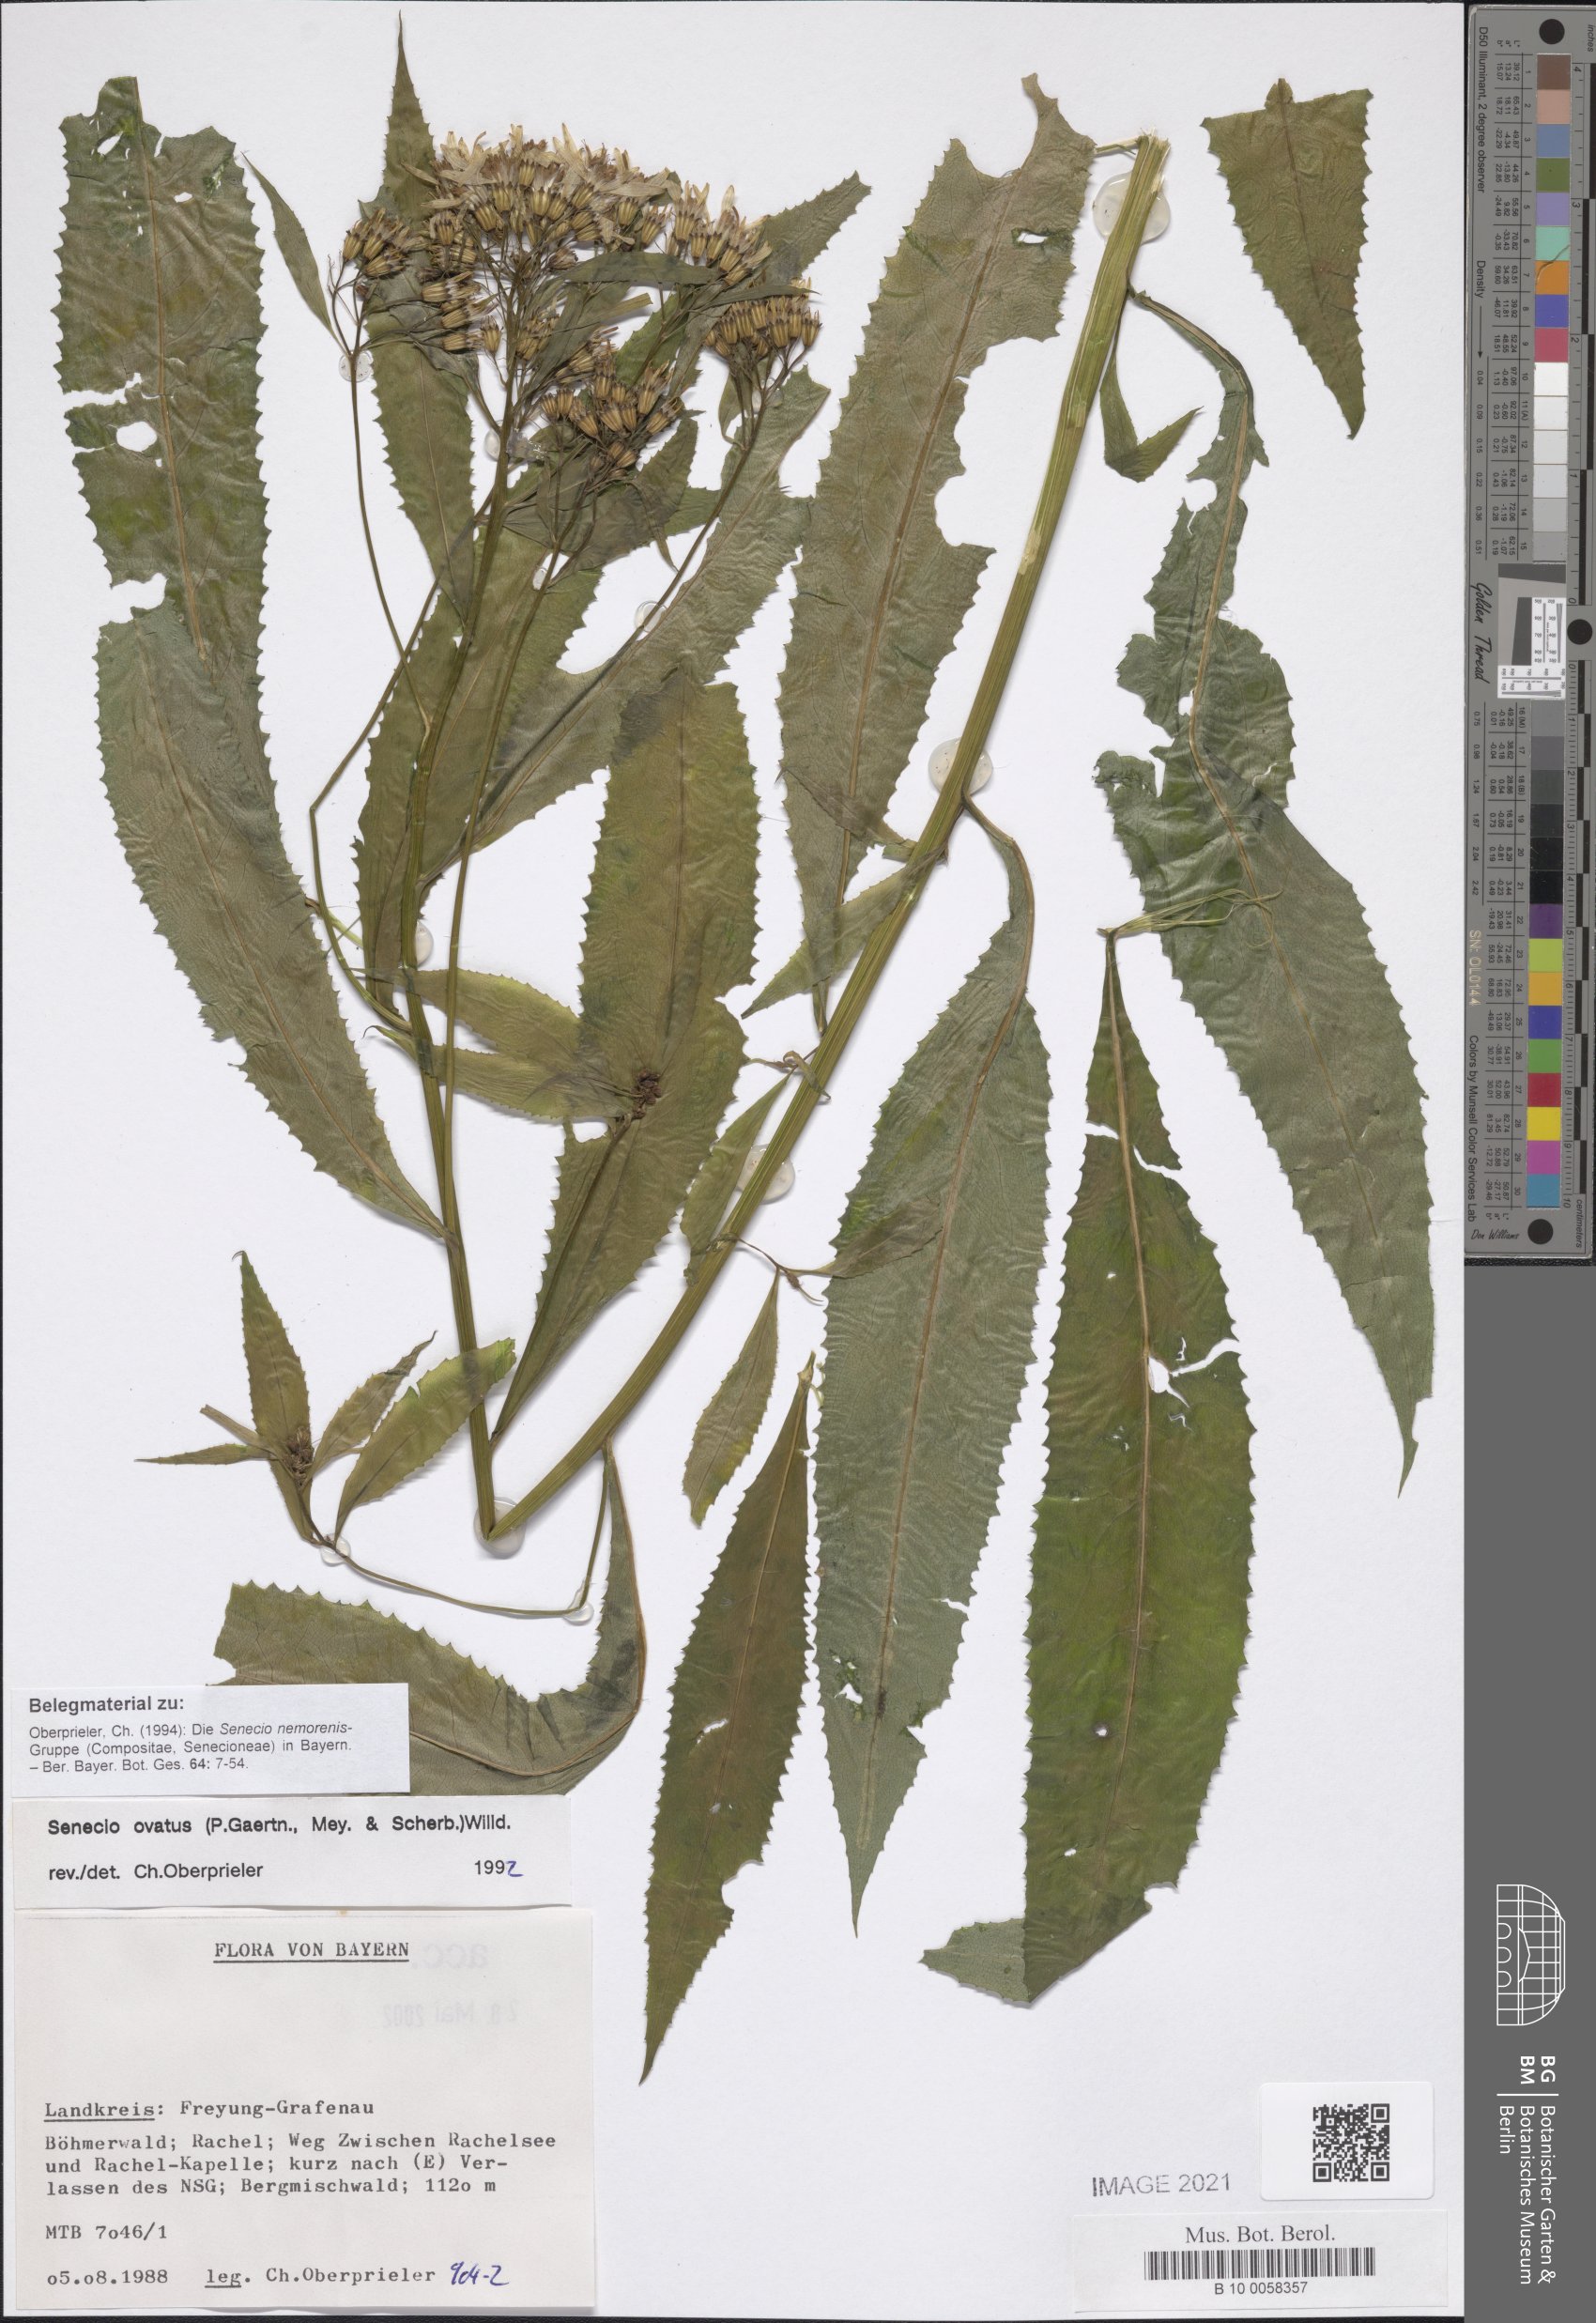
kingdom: Plantae
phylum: Tracheophyta
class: Magnoliopsida
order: Asterales
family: Asteraceae
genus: Senecio
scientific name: Senecio ovatus
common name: Wood ragwort
